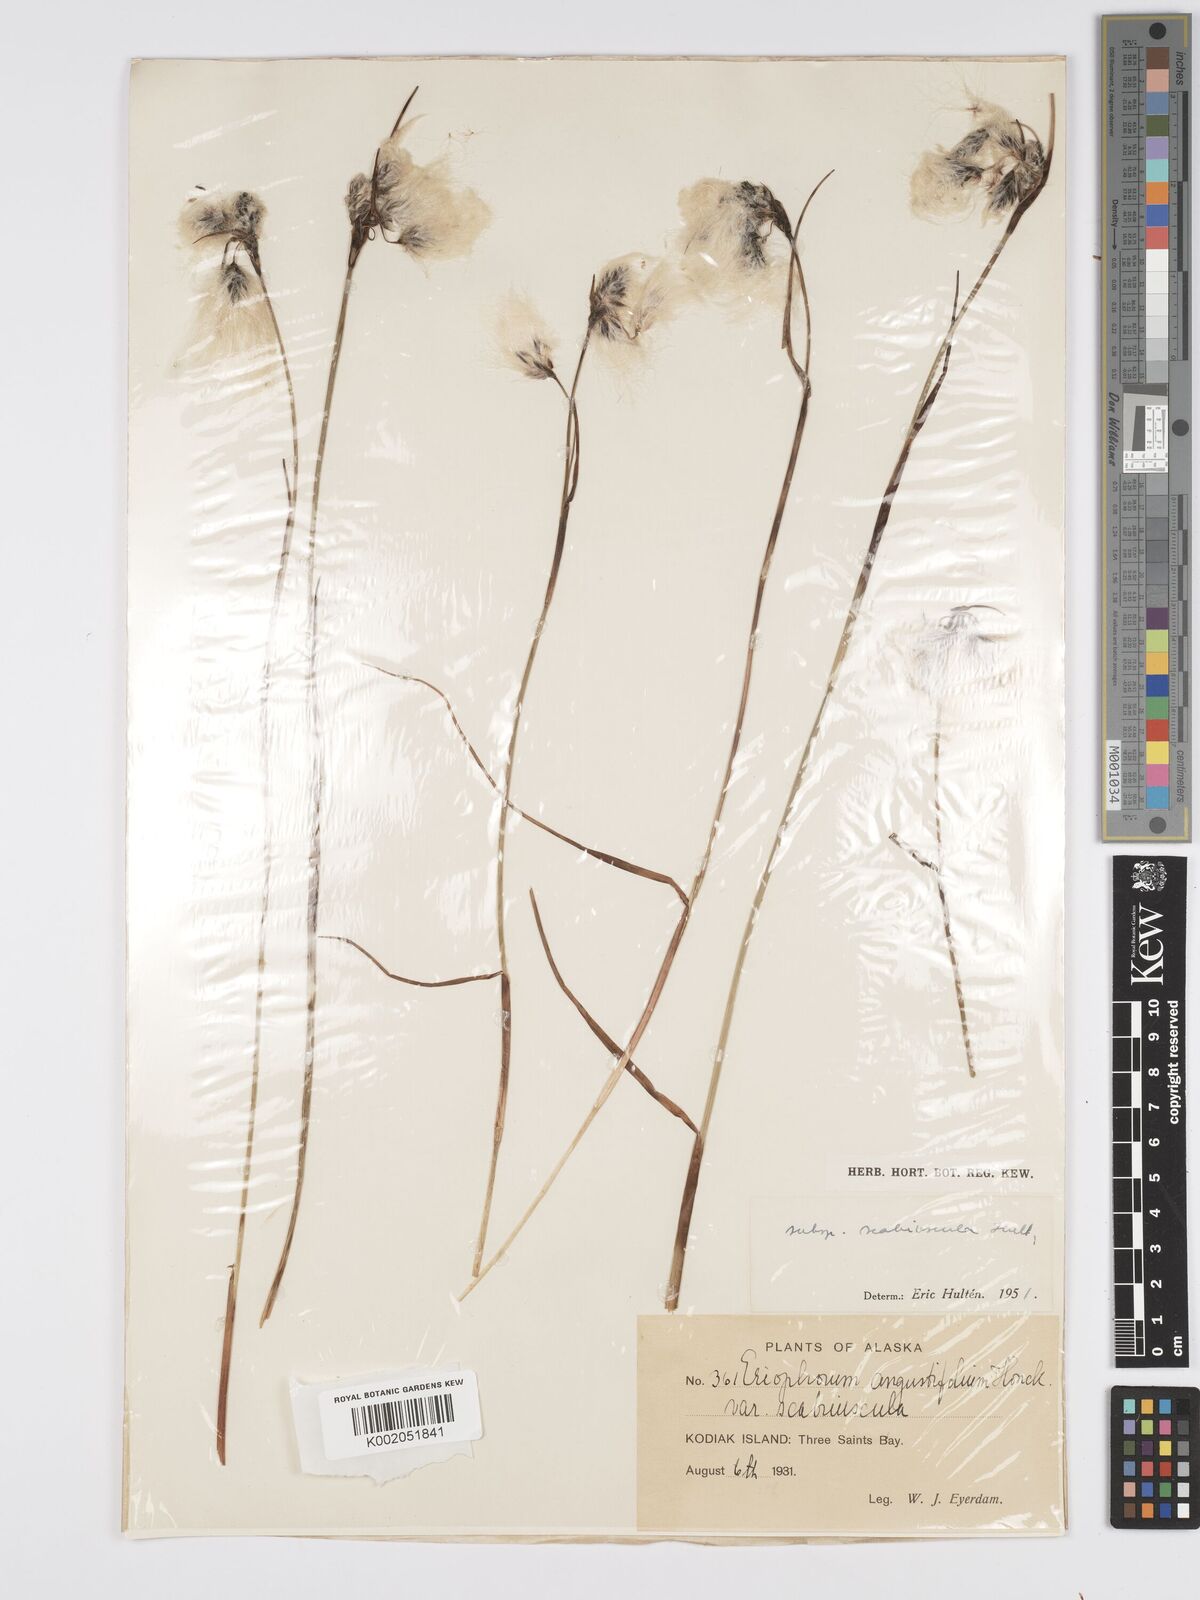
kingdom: Plantae
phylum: Tracheophyta
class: Liliopsida
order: Poales
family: Cyperaceae
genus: Eriophorum
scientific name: Eriophorum angustifolium
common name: Common cottongrass
